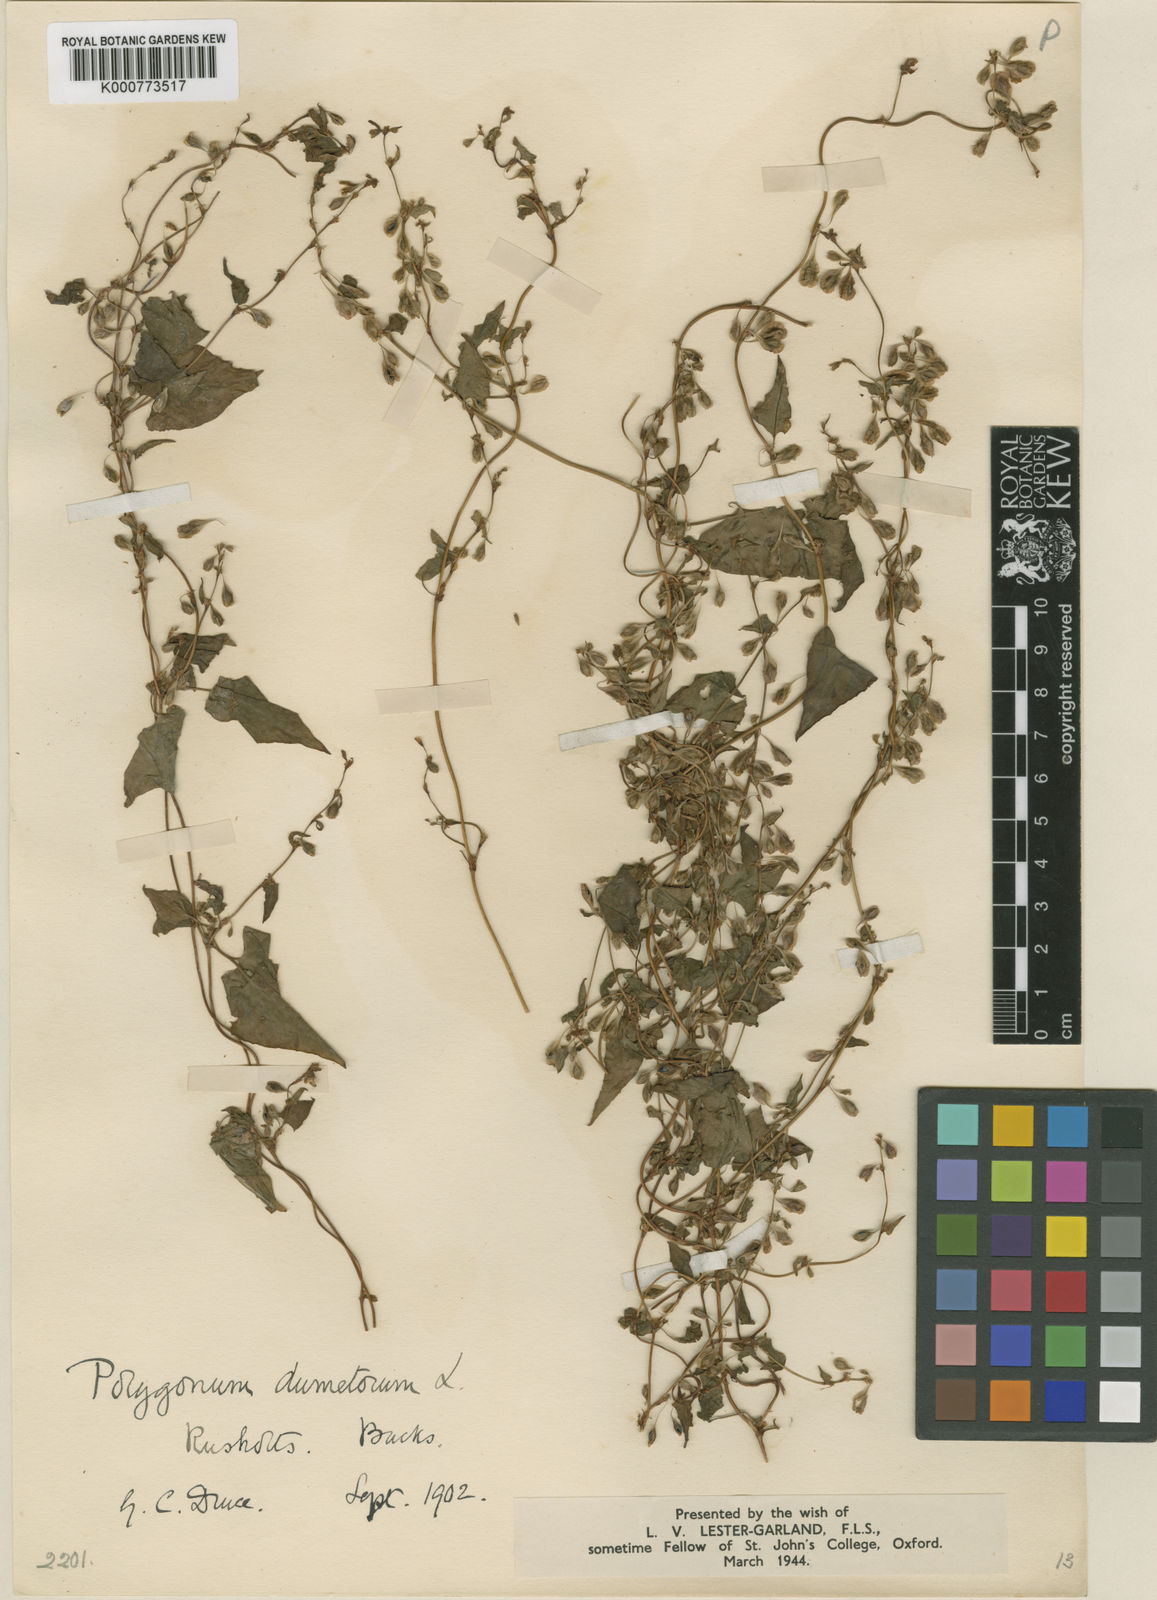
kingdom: Plantae
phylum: Tracheophyta
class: Magnoliopsida
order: Caryophyllales
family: Polygonaceae
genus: Fallopia
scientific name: Fallopia dumetorum
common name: Copse-bindweed
